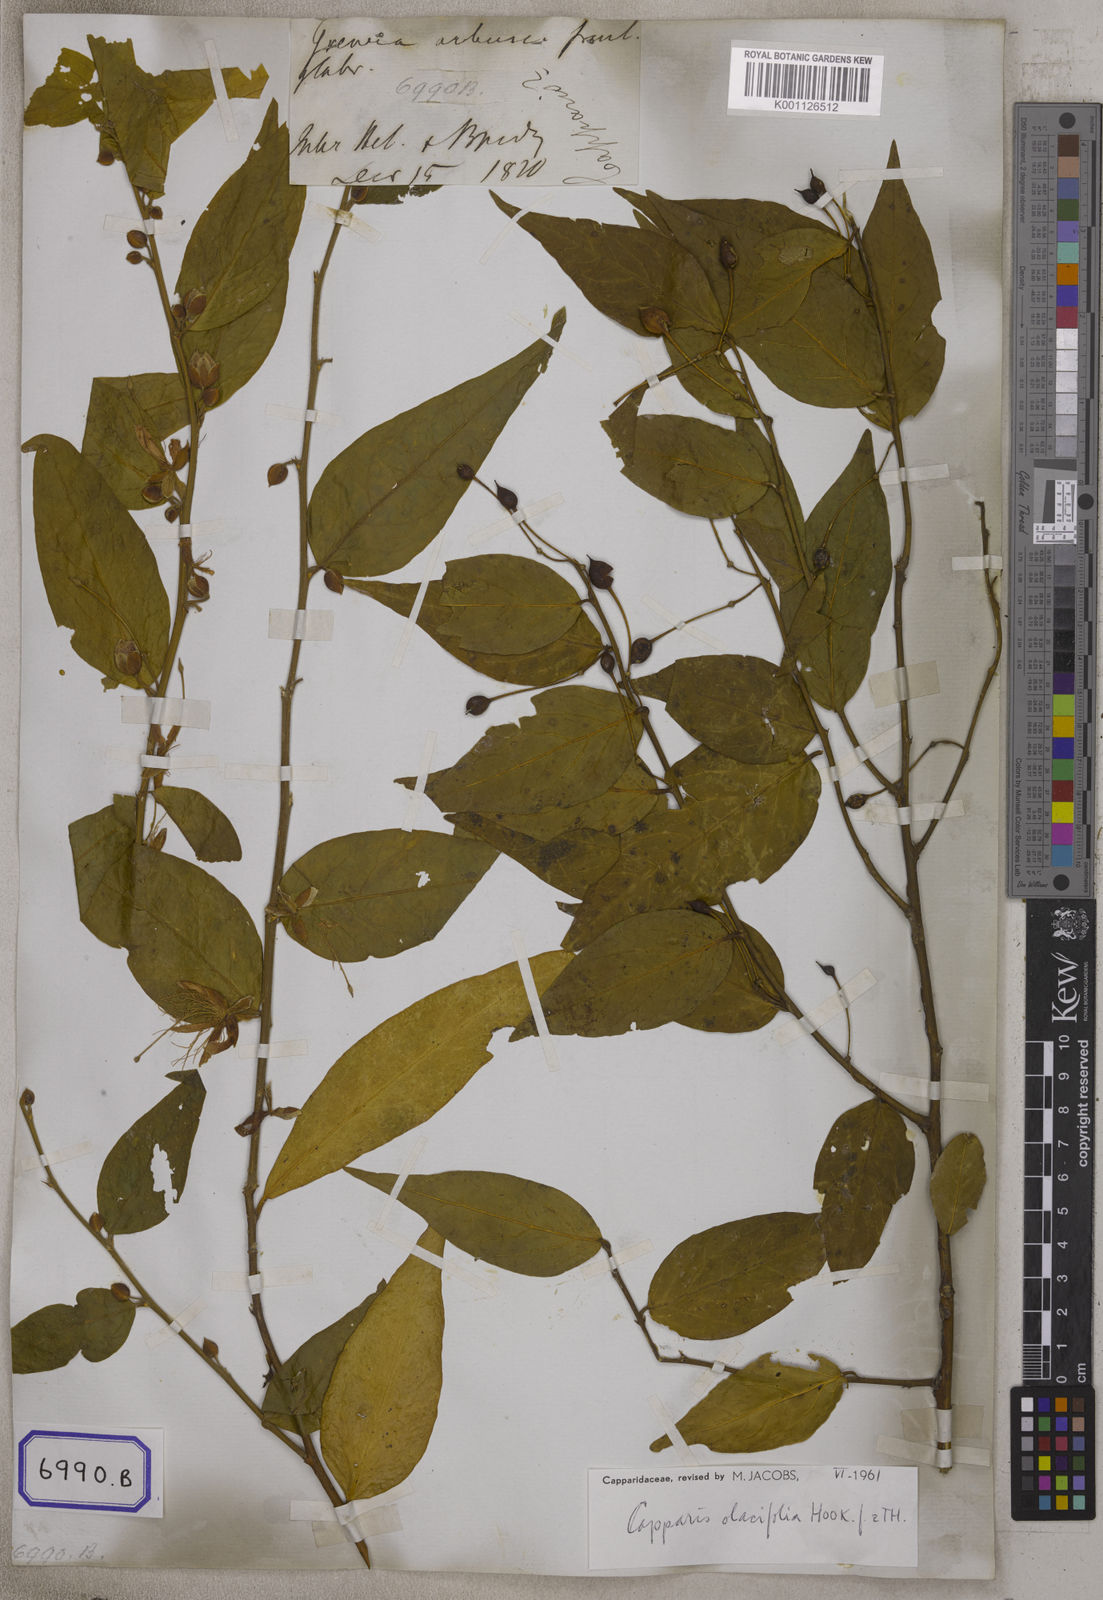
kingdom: Plantae
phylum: Tracheophyta
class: Magnoliopsida
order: Brassicales
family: Capparaceae
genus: Capparis
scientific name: Capparis
